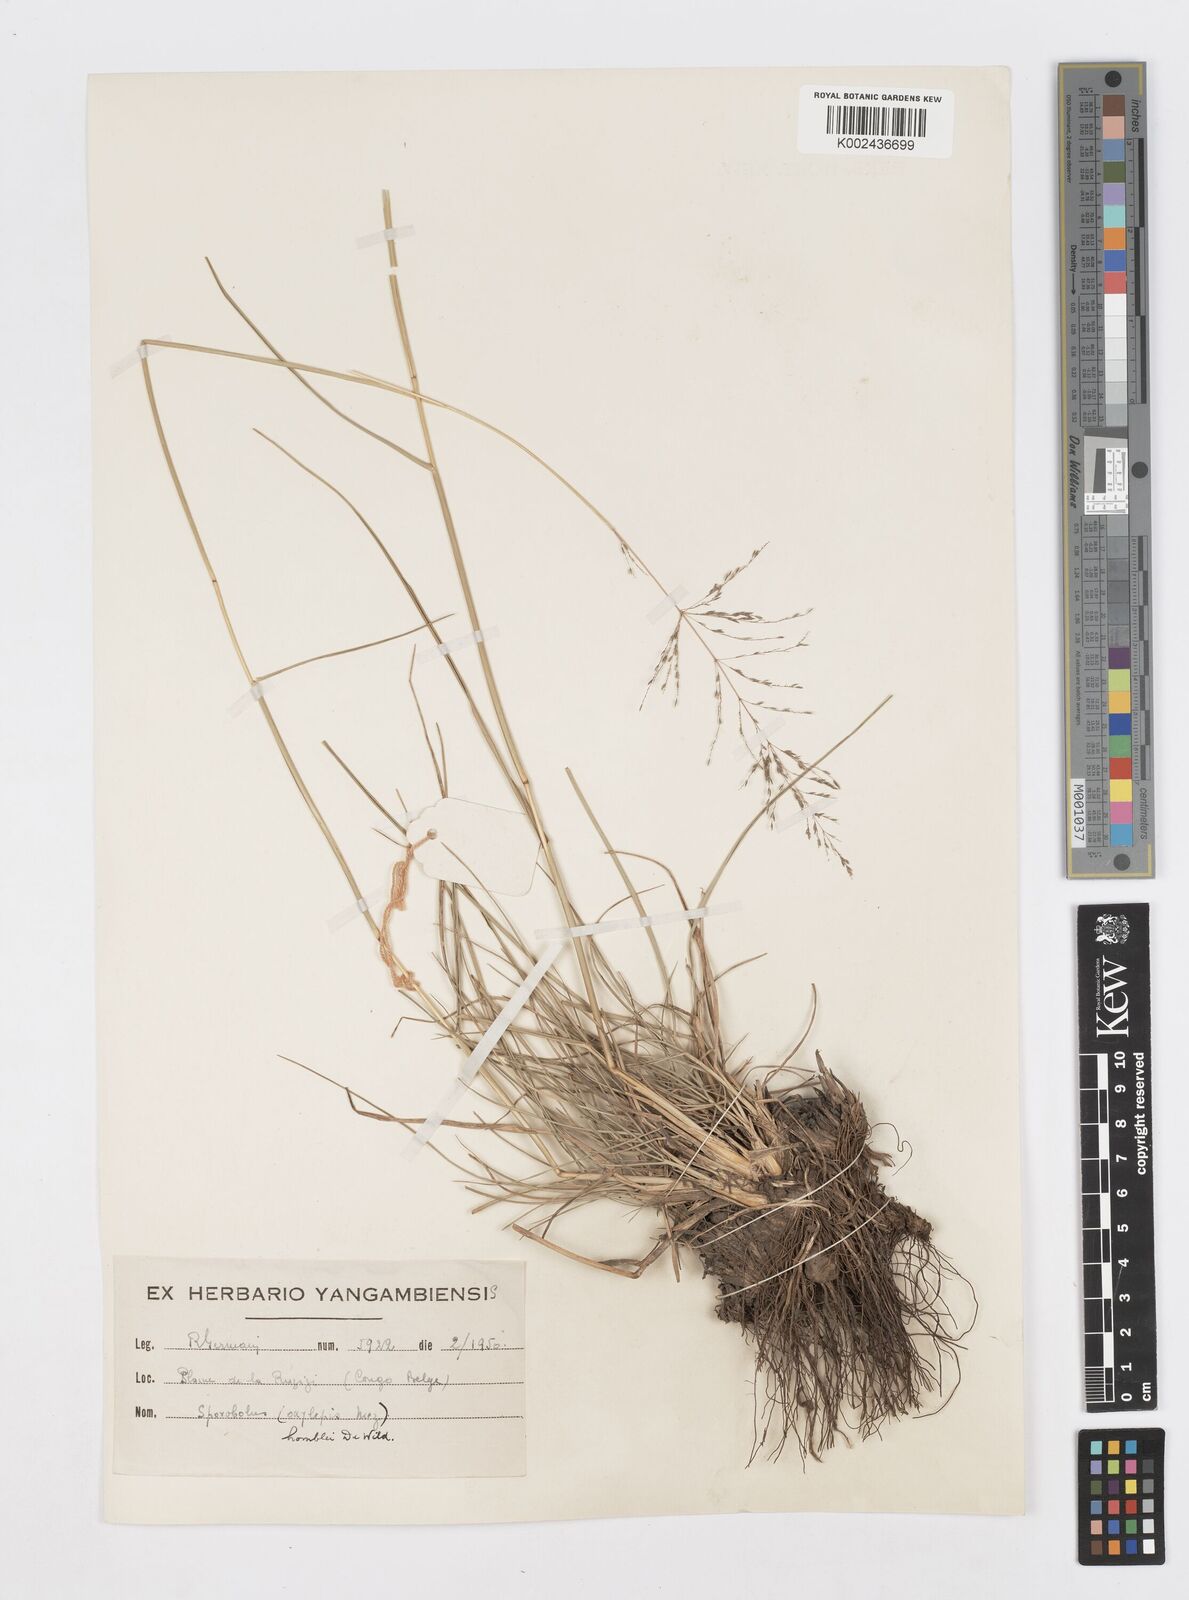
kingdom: Plantae
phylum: Tracheophyta
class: Liliopsida
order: Poales
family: Poaceae
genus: Sporobolus
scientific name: Sporobolus ioclados
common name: Pan dropseed
